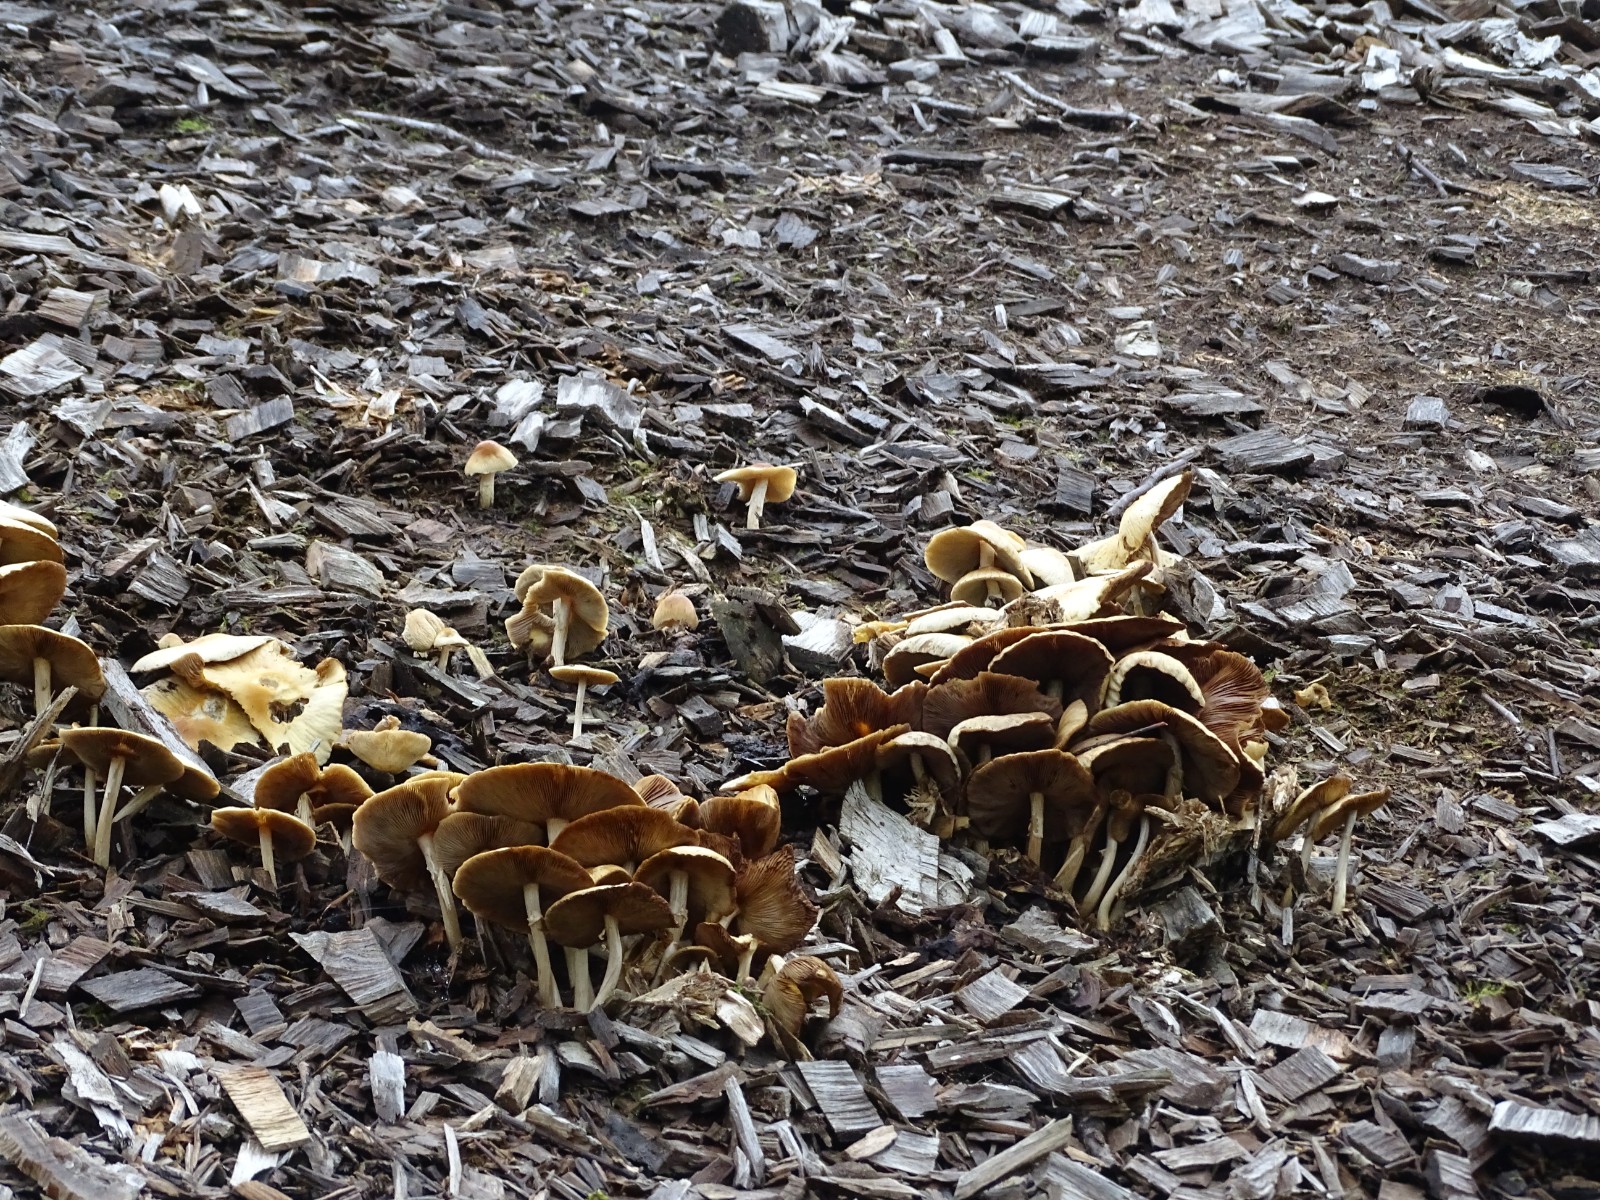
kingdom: Fungi
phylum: Basidiomycota
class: Agaricomycetes
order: Agaricales
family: Strophariaceae
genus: Agrocybe
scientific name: Agrocybe rivulosa
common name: året agerhat
